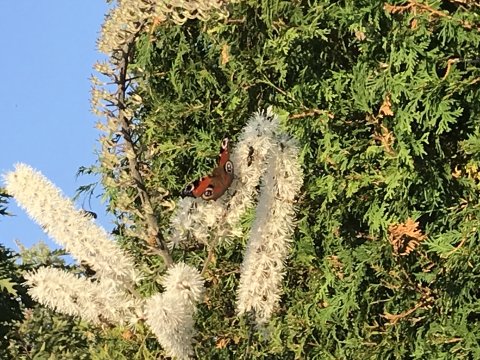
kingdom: Animalia
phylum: Arthropoda
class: Insecta
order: Lepidoptera
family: Nymphalidae
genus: Aglais
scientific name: Aglais io
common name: European Peacock
